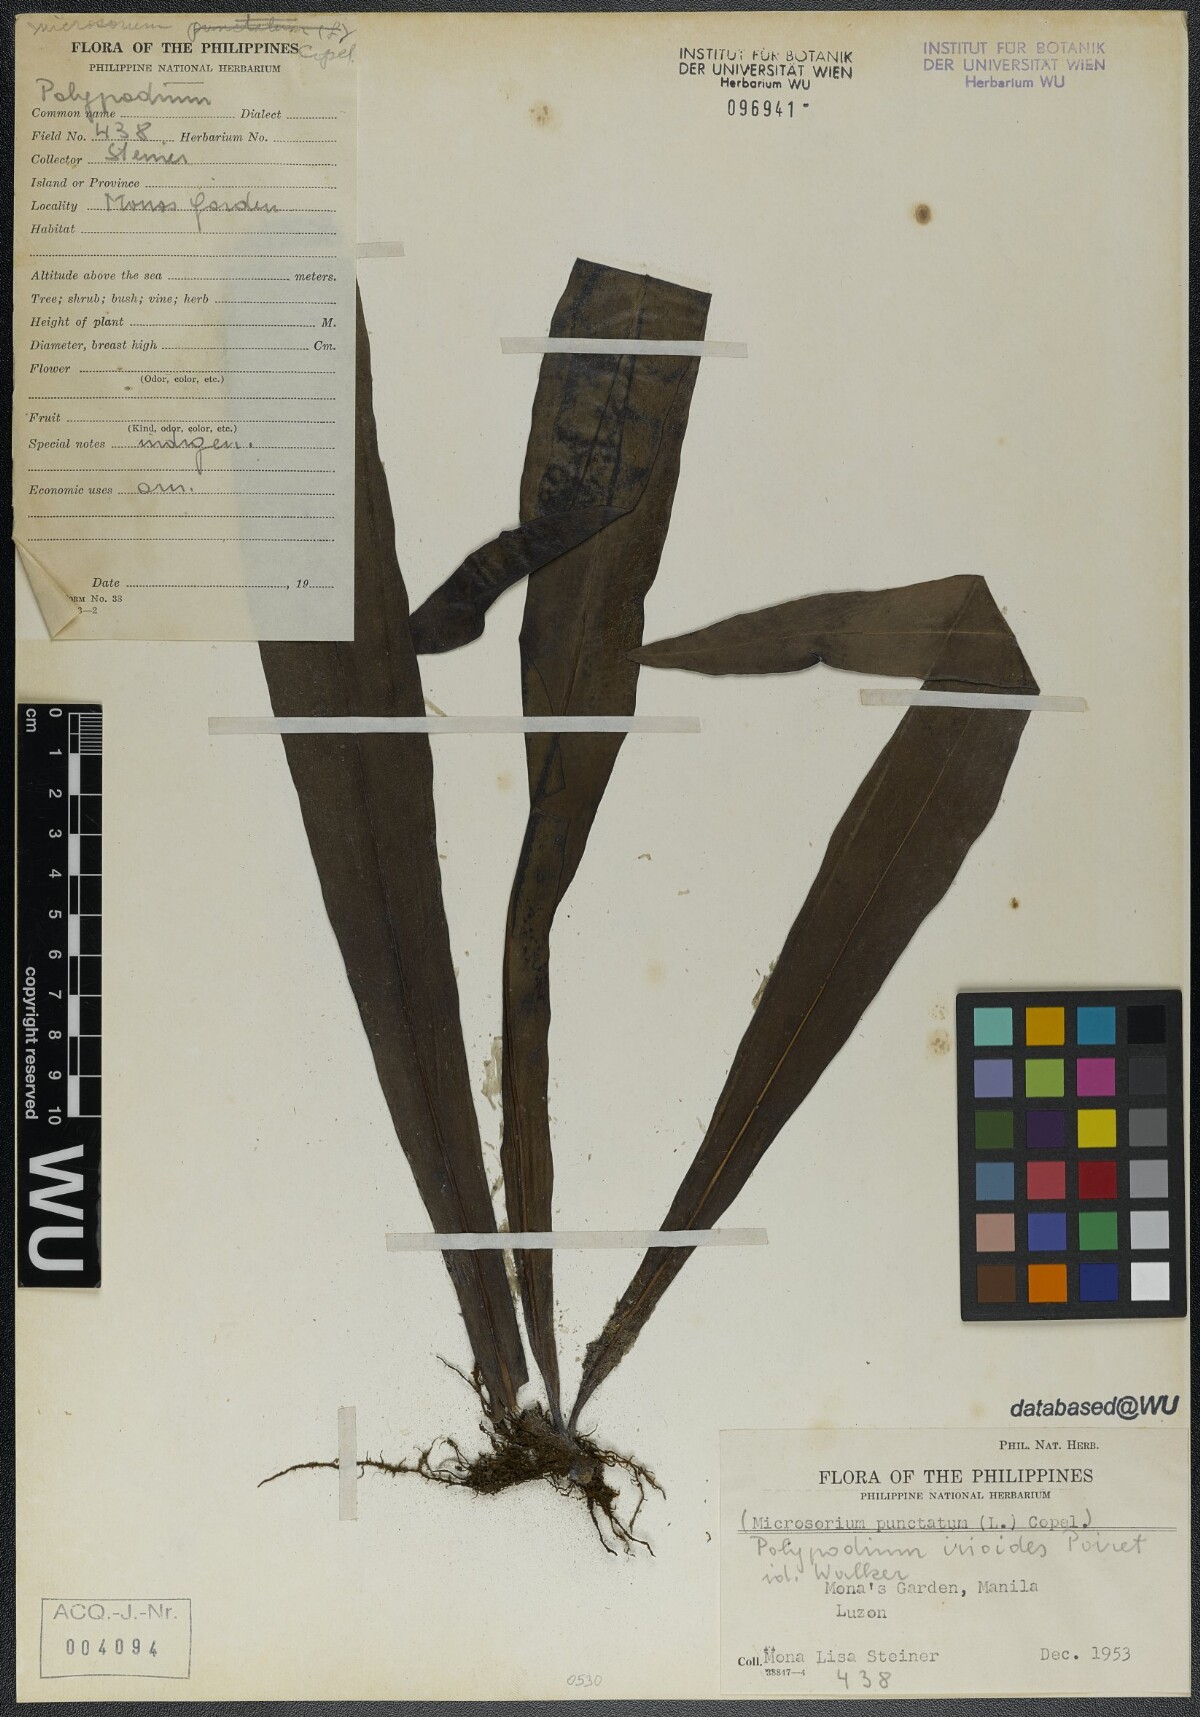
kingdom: Plantae
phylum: Tracheophyta
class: Polypodiopsida
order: Polypodiales
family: Polypodiaceae
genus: Microsorum
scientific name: Microsorum punctatum
